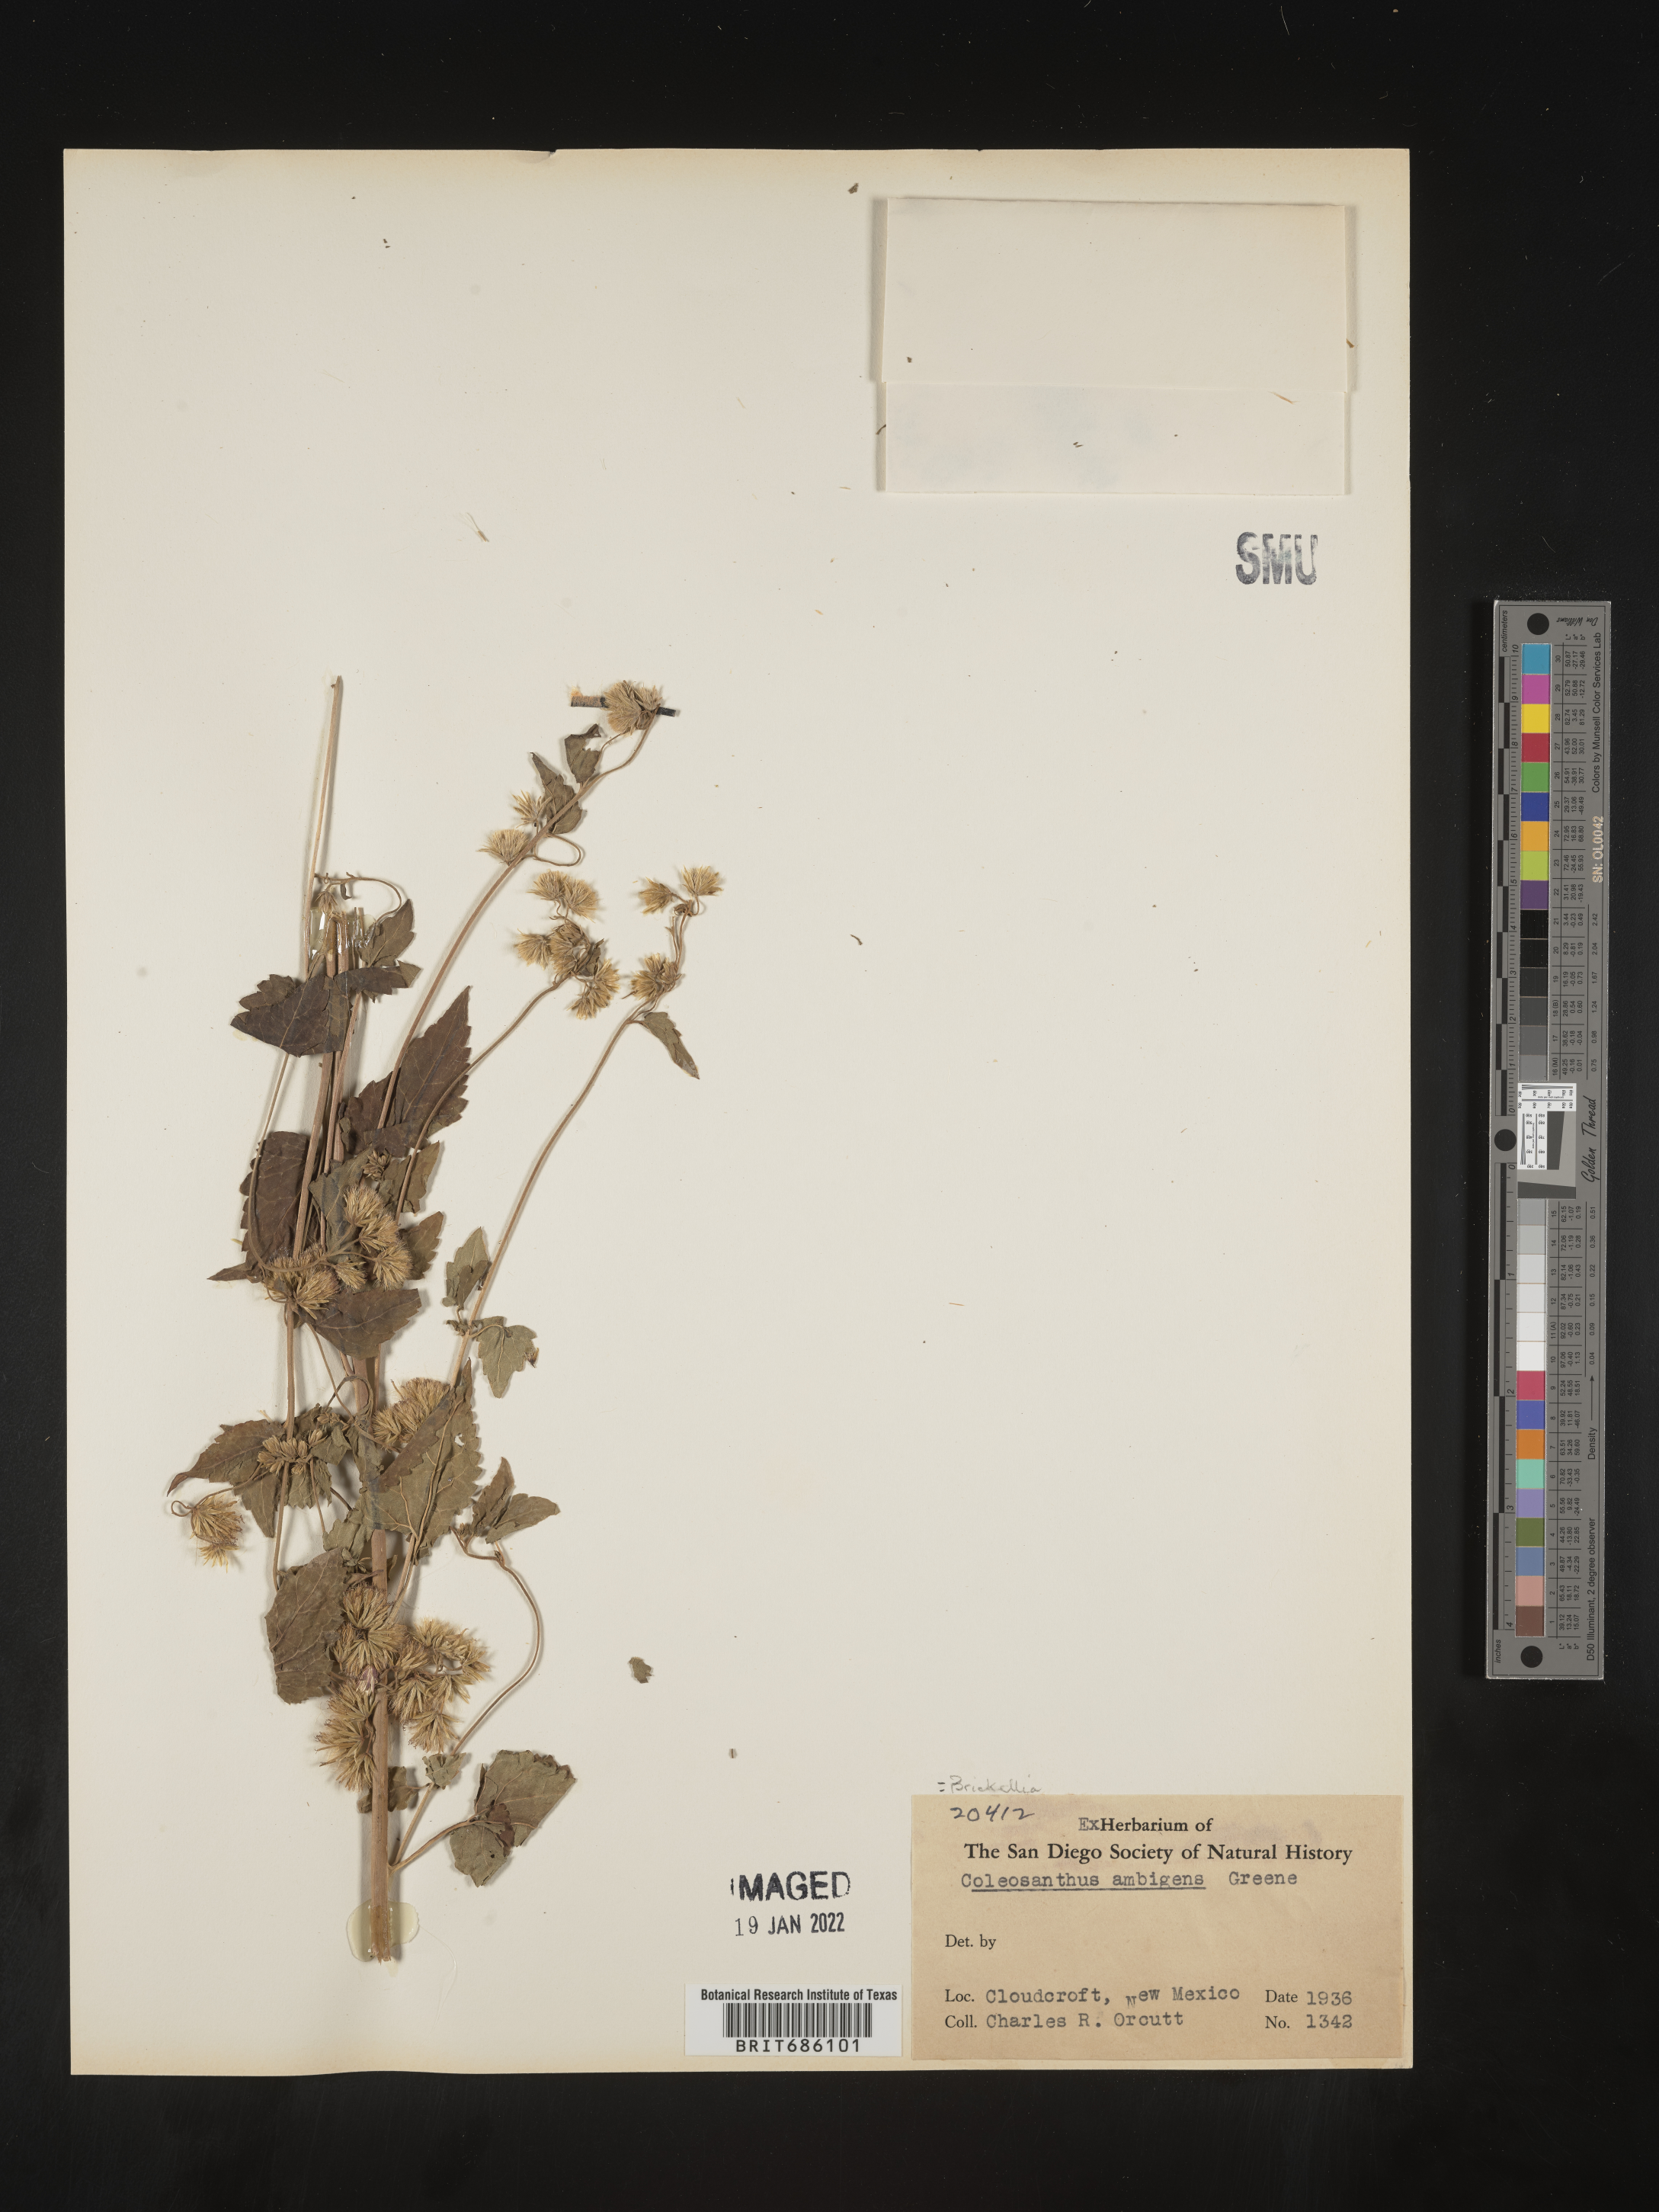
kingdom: Plantae
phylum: Tracheophyta
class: Magnoliopsida
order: Asterales
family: Asteraceae
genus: Brickellia
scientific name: Brickellia
